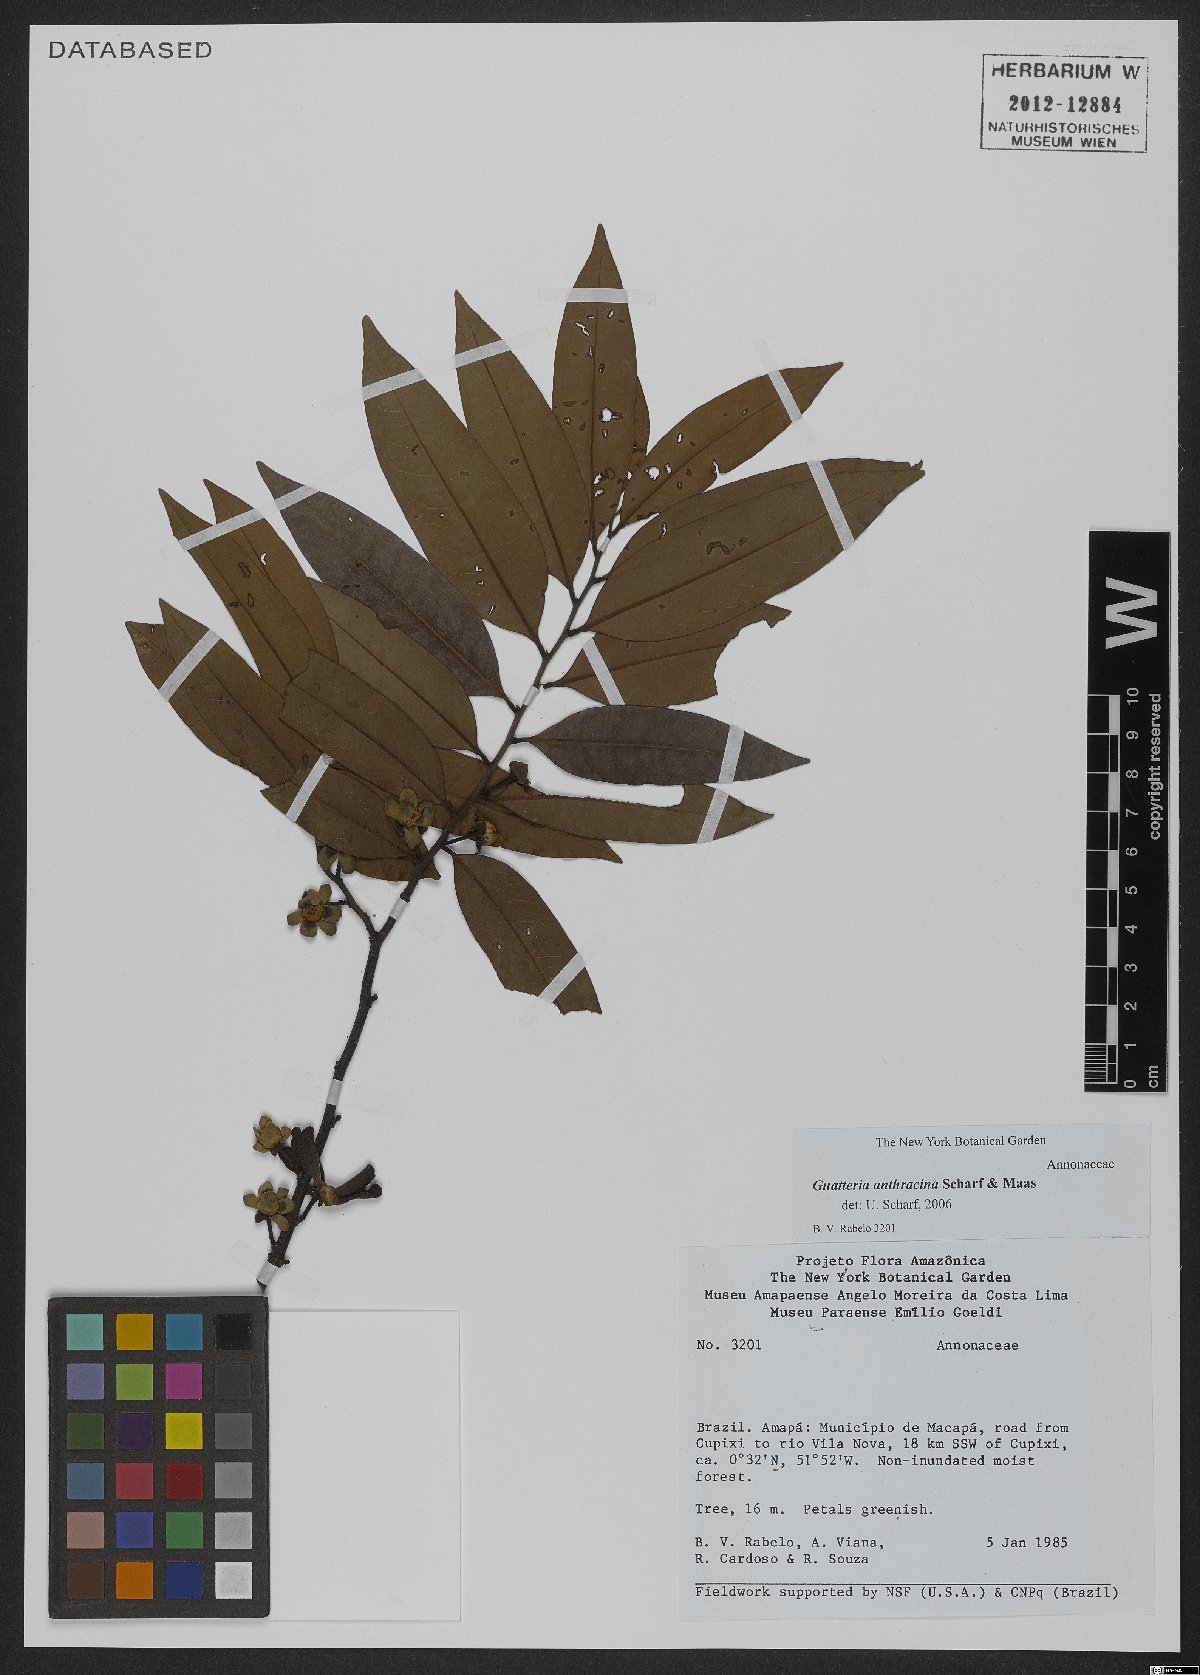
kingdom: Plantae
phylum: Tracheophyta
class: Magnoliopsida
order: Magnoliales
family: Annonaceae
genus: Guatteria
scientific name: Guatteria anthracina
